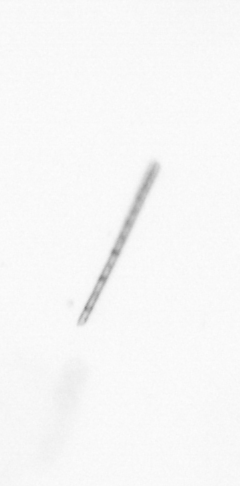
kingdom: Chromista
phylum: Ochrophyta
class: Bacillariophyceae
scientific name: Bacillariophyceae
